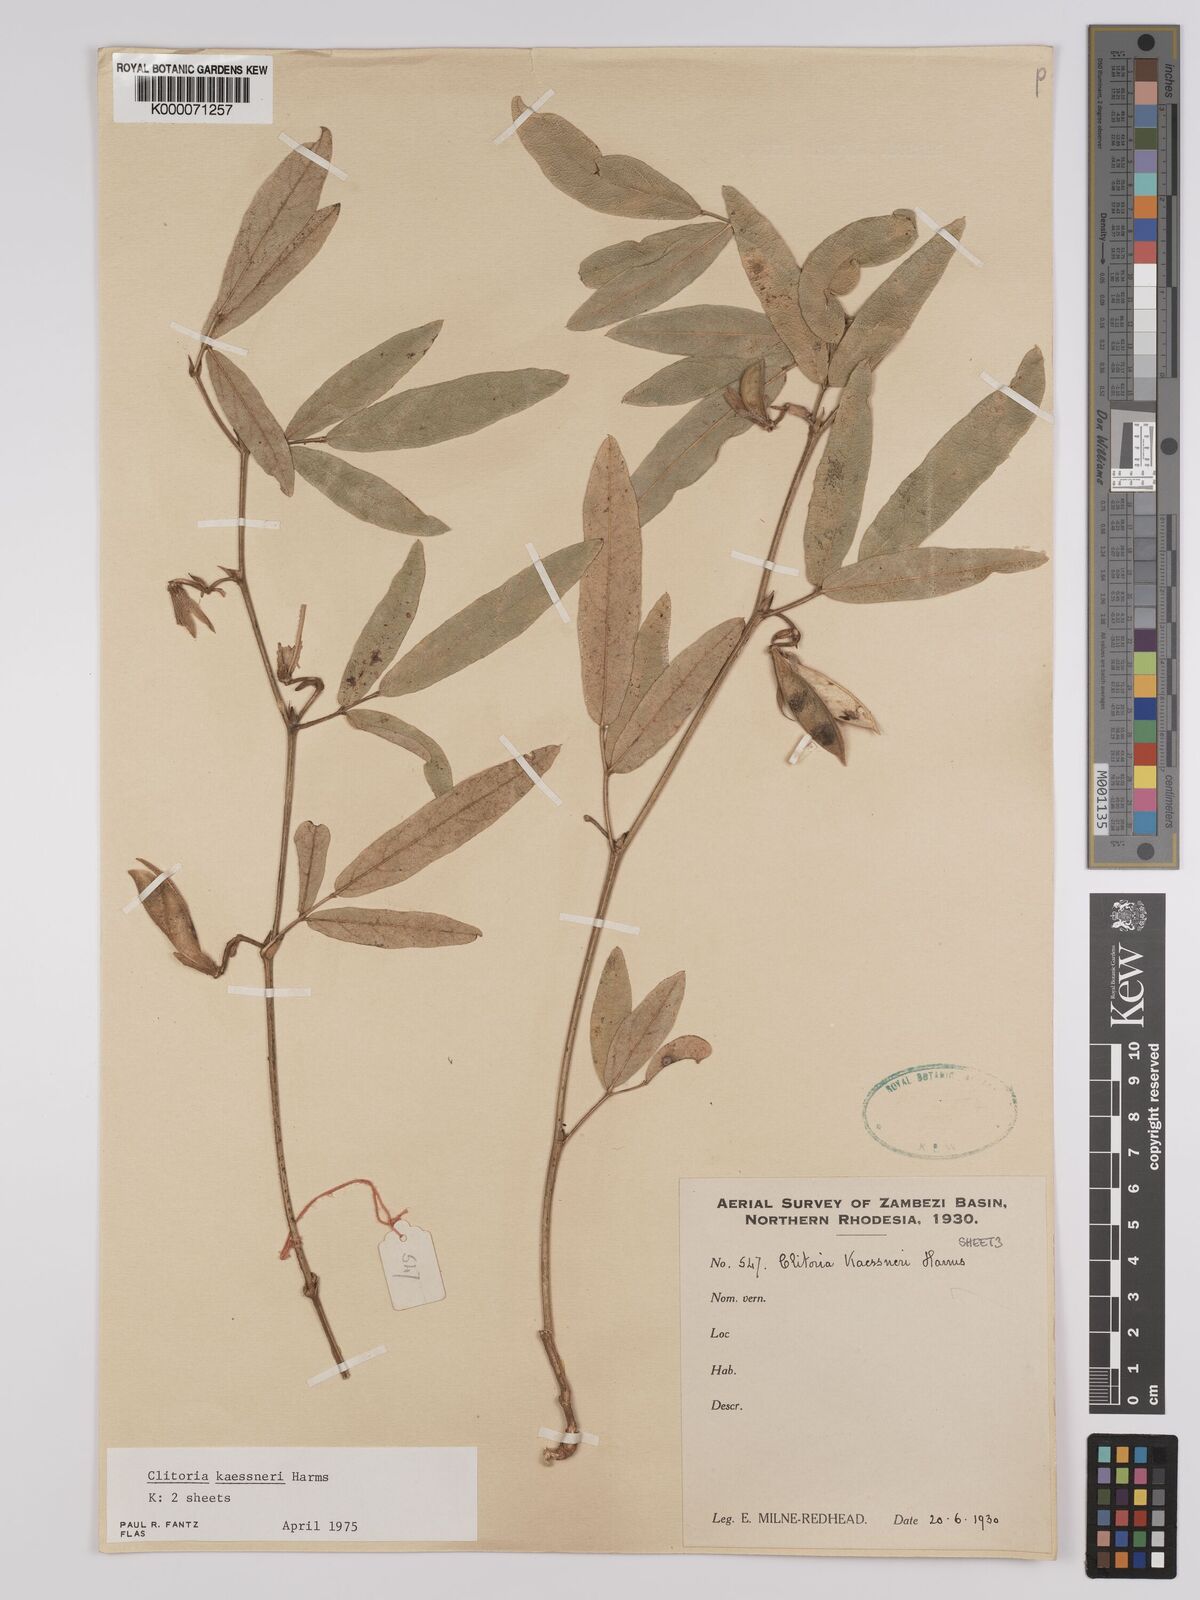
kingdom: Plantae
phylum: Tracheophyta
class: Magnoliopsida
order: Fabales
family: Fabaceae
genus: Clitoria
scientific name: Clitoria kaessneri
